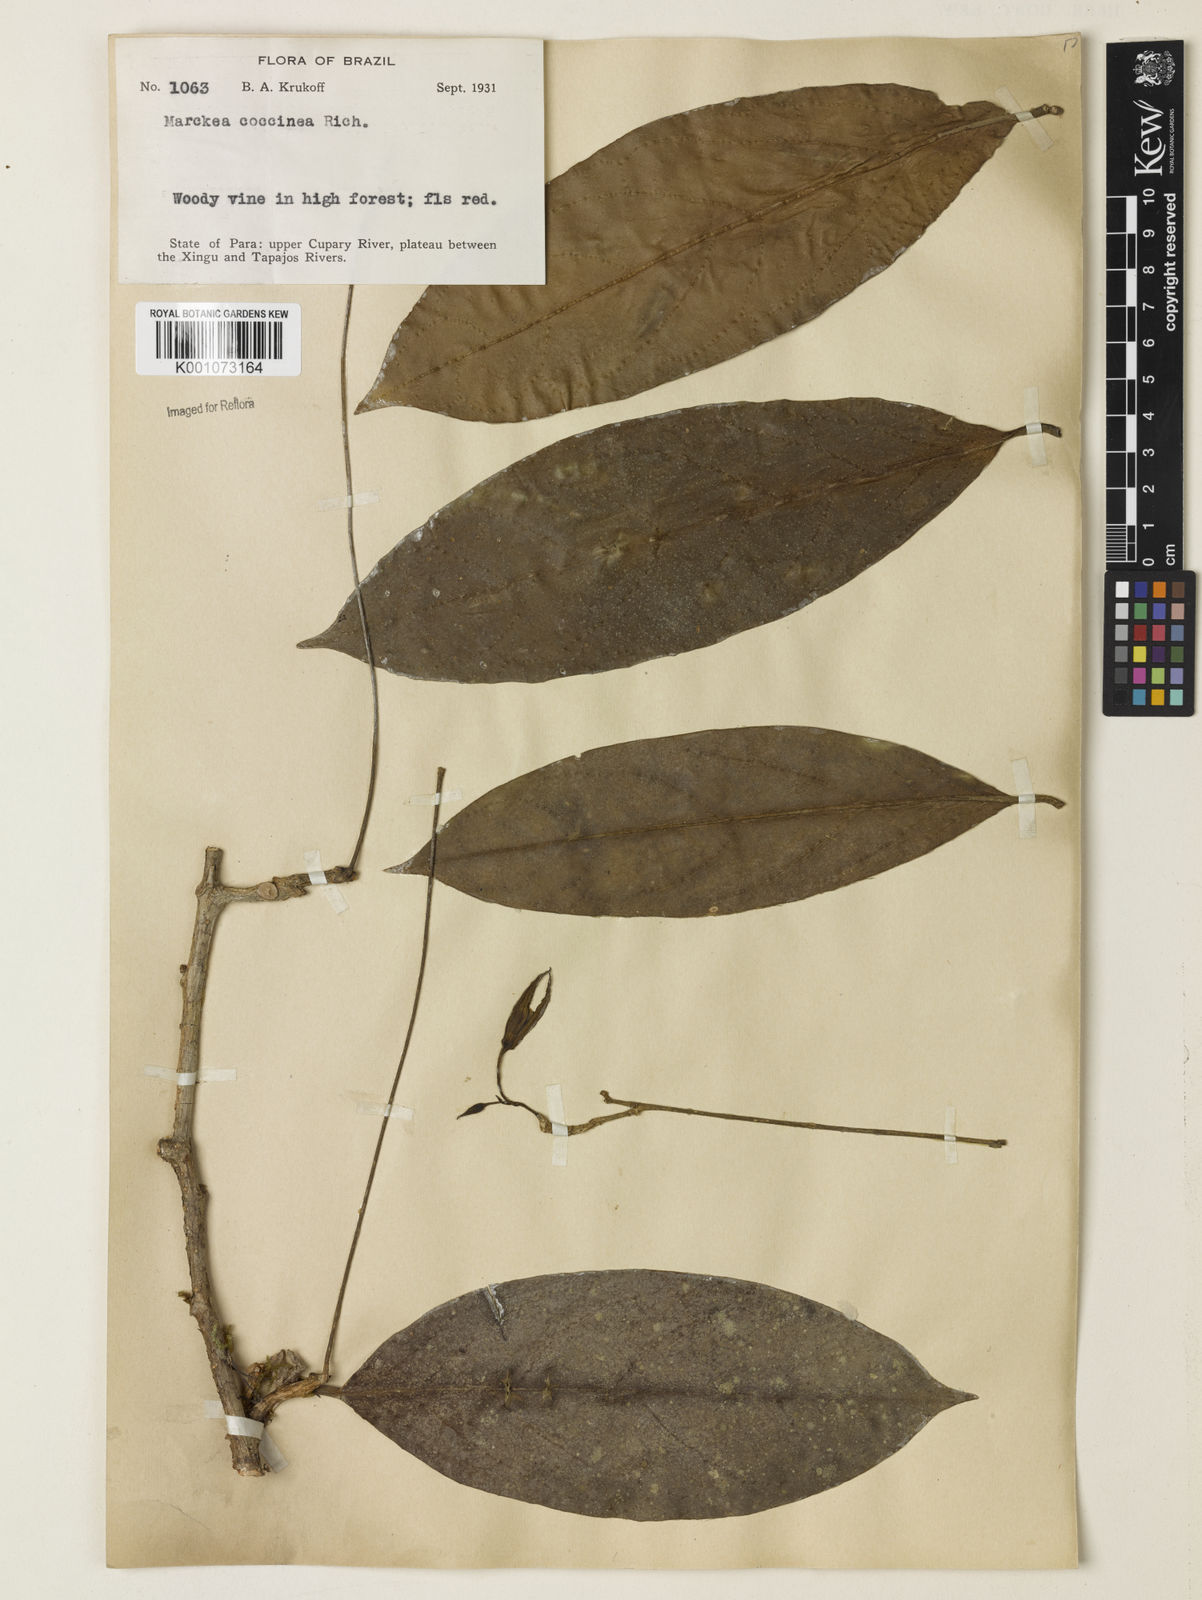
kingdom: Plantae
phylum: Tracheophyta
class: Magnoliopsida
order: Solanales
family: Solanaceae
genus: Markea
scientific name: Markea coccinea
